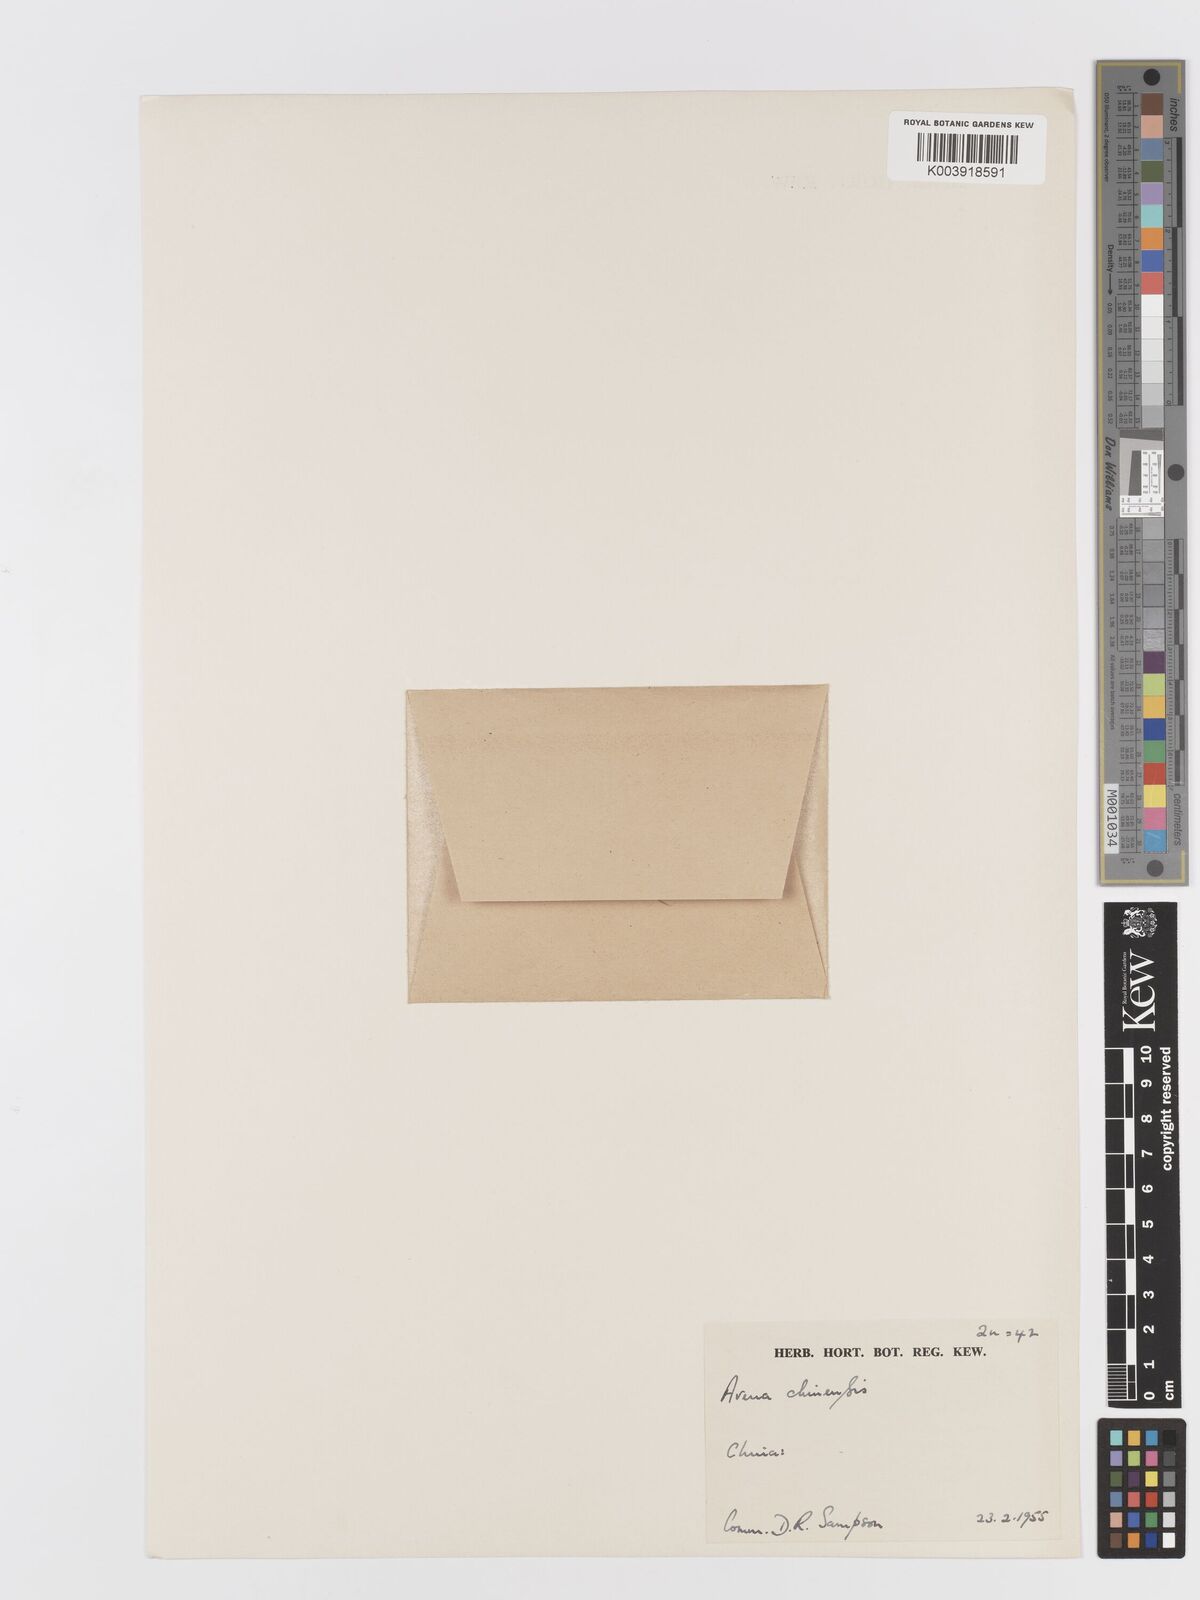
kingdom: Plantae
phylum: Tracheophyta
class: Liliopsida
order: Poales
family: Poaceae
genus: Avena
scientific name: Avena chinensis
